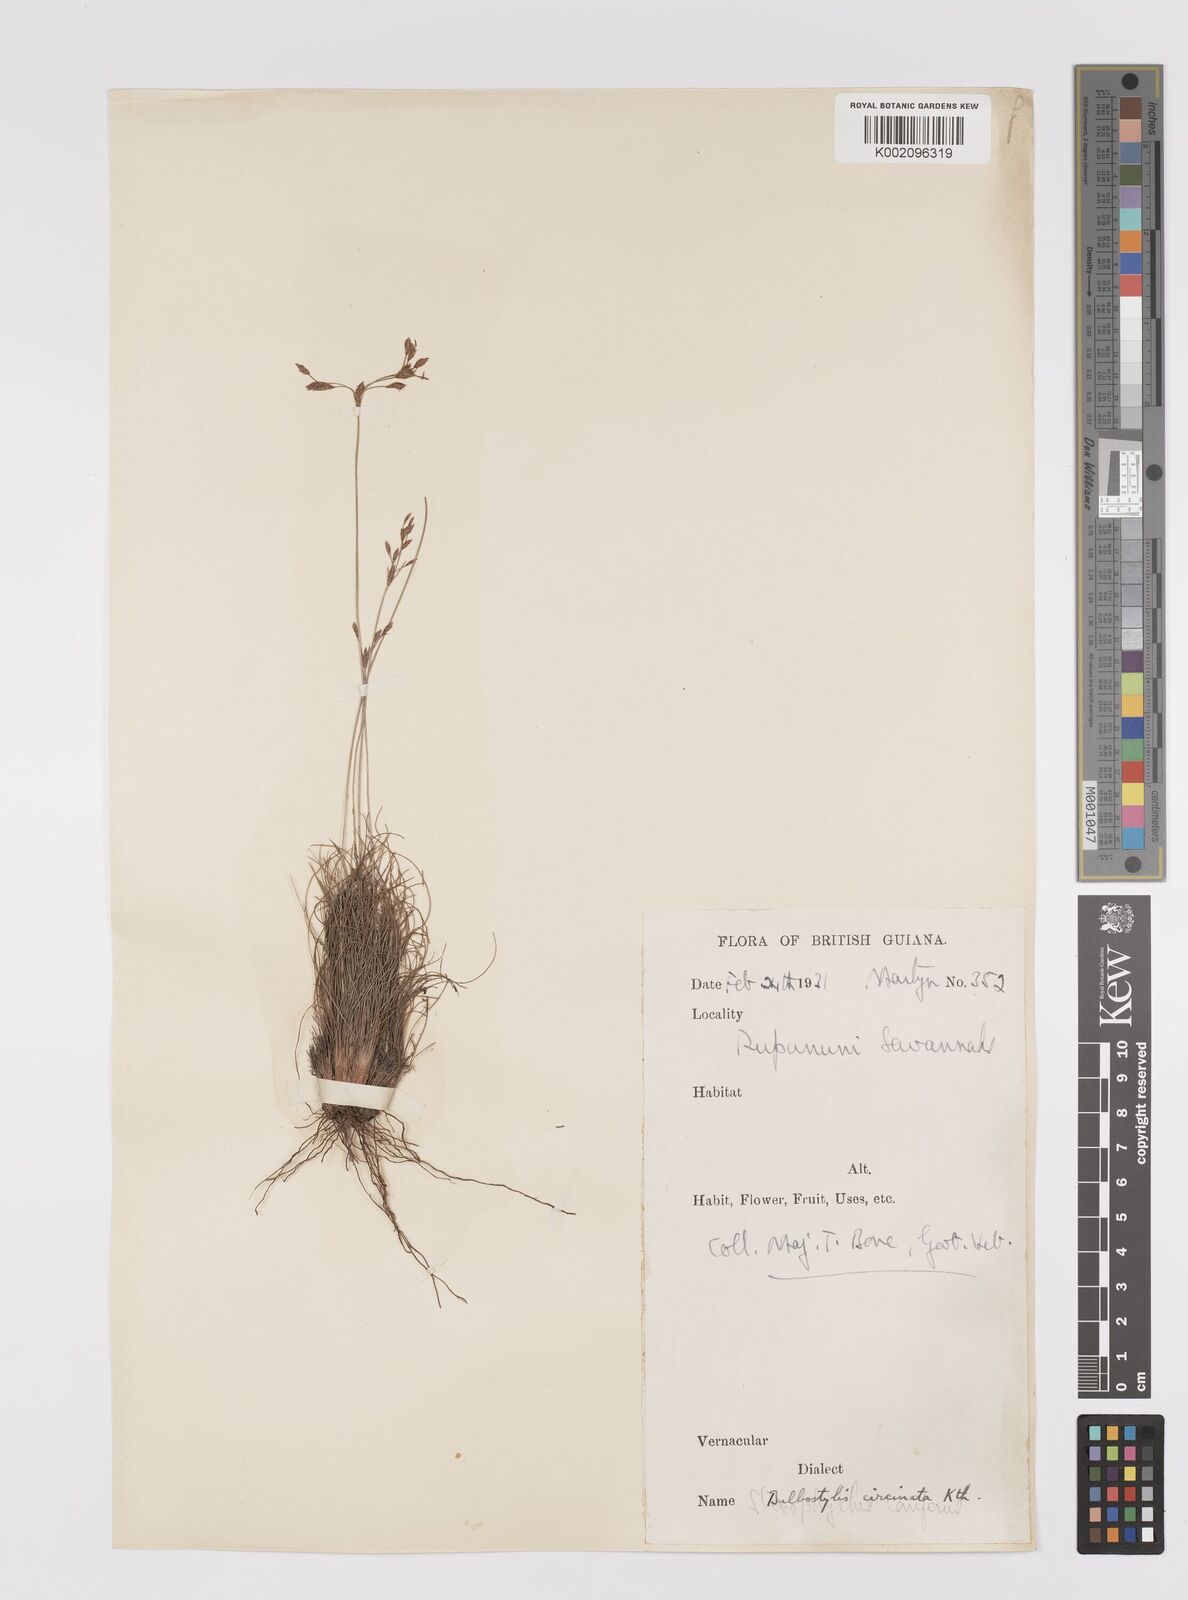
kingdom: Plantae
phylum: Tracheophyta
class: Liliopsida
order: Poales
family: Cyperaceae
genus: Bulbostylis
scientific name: Bulbostylis circinata
